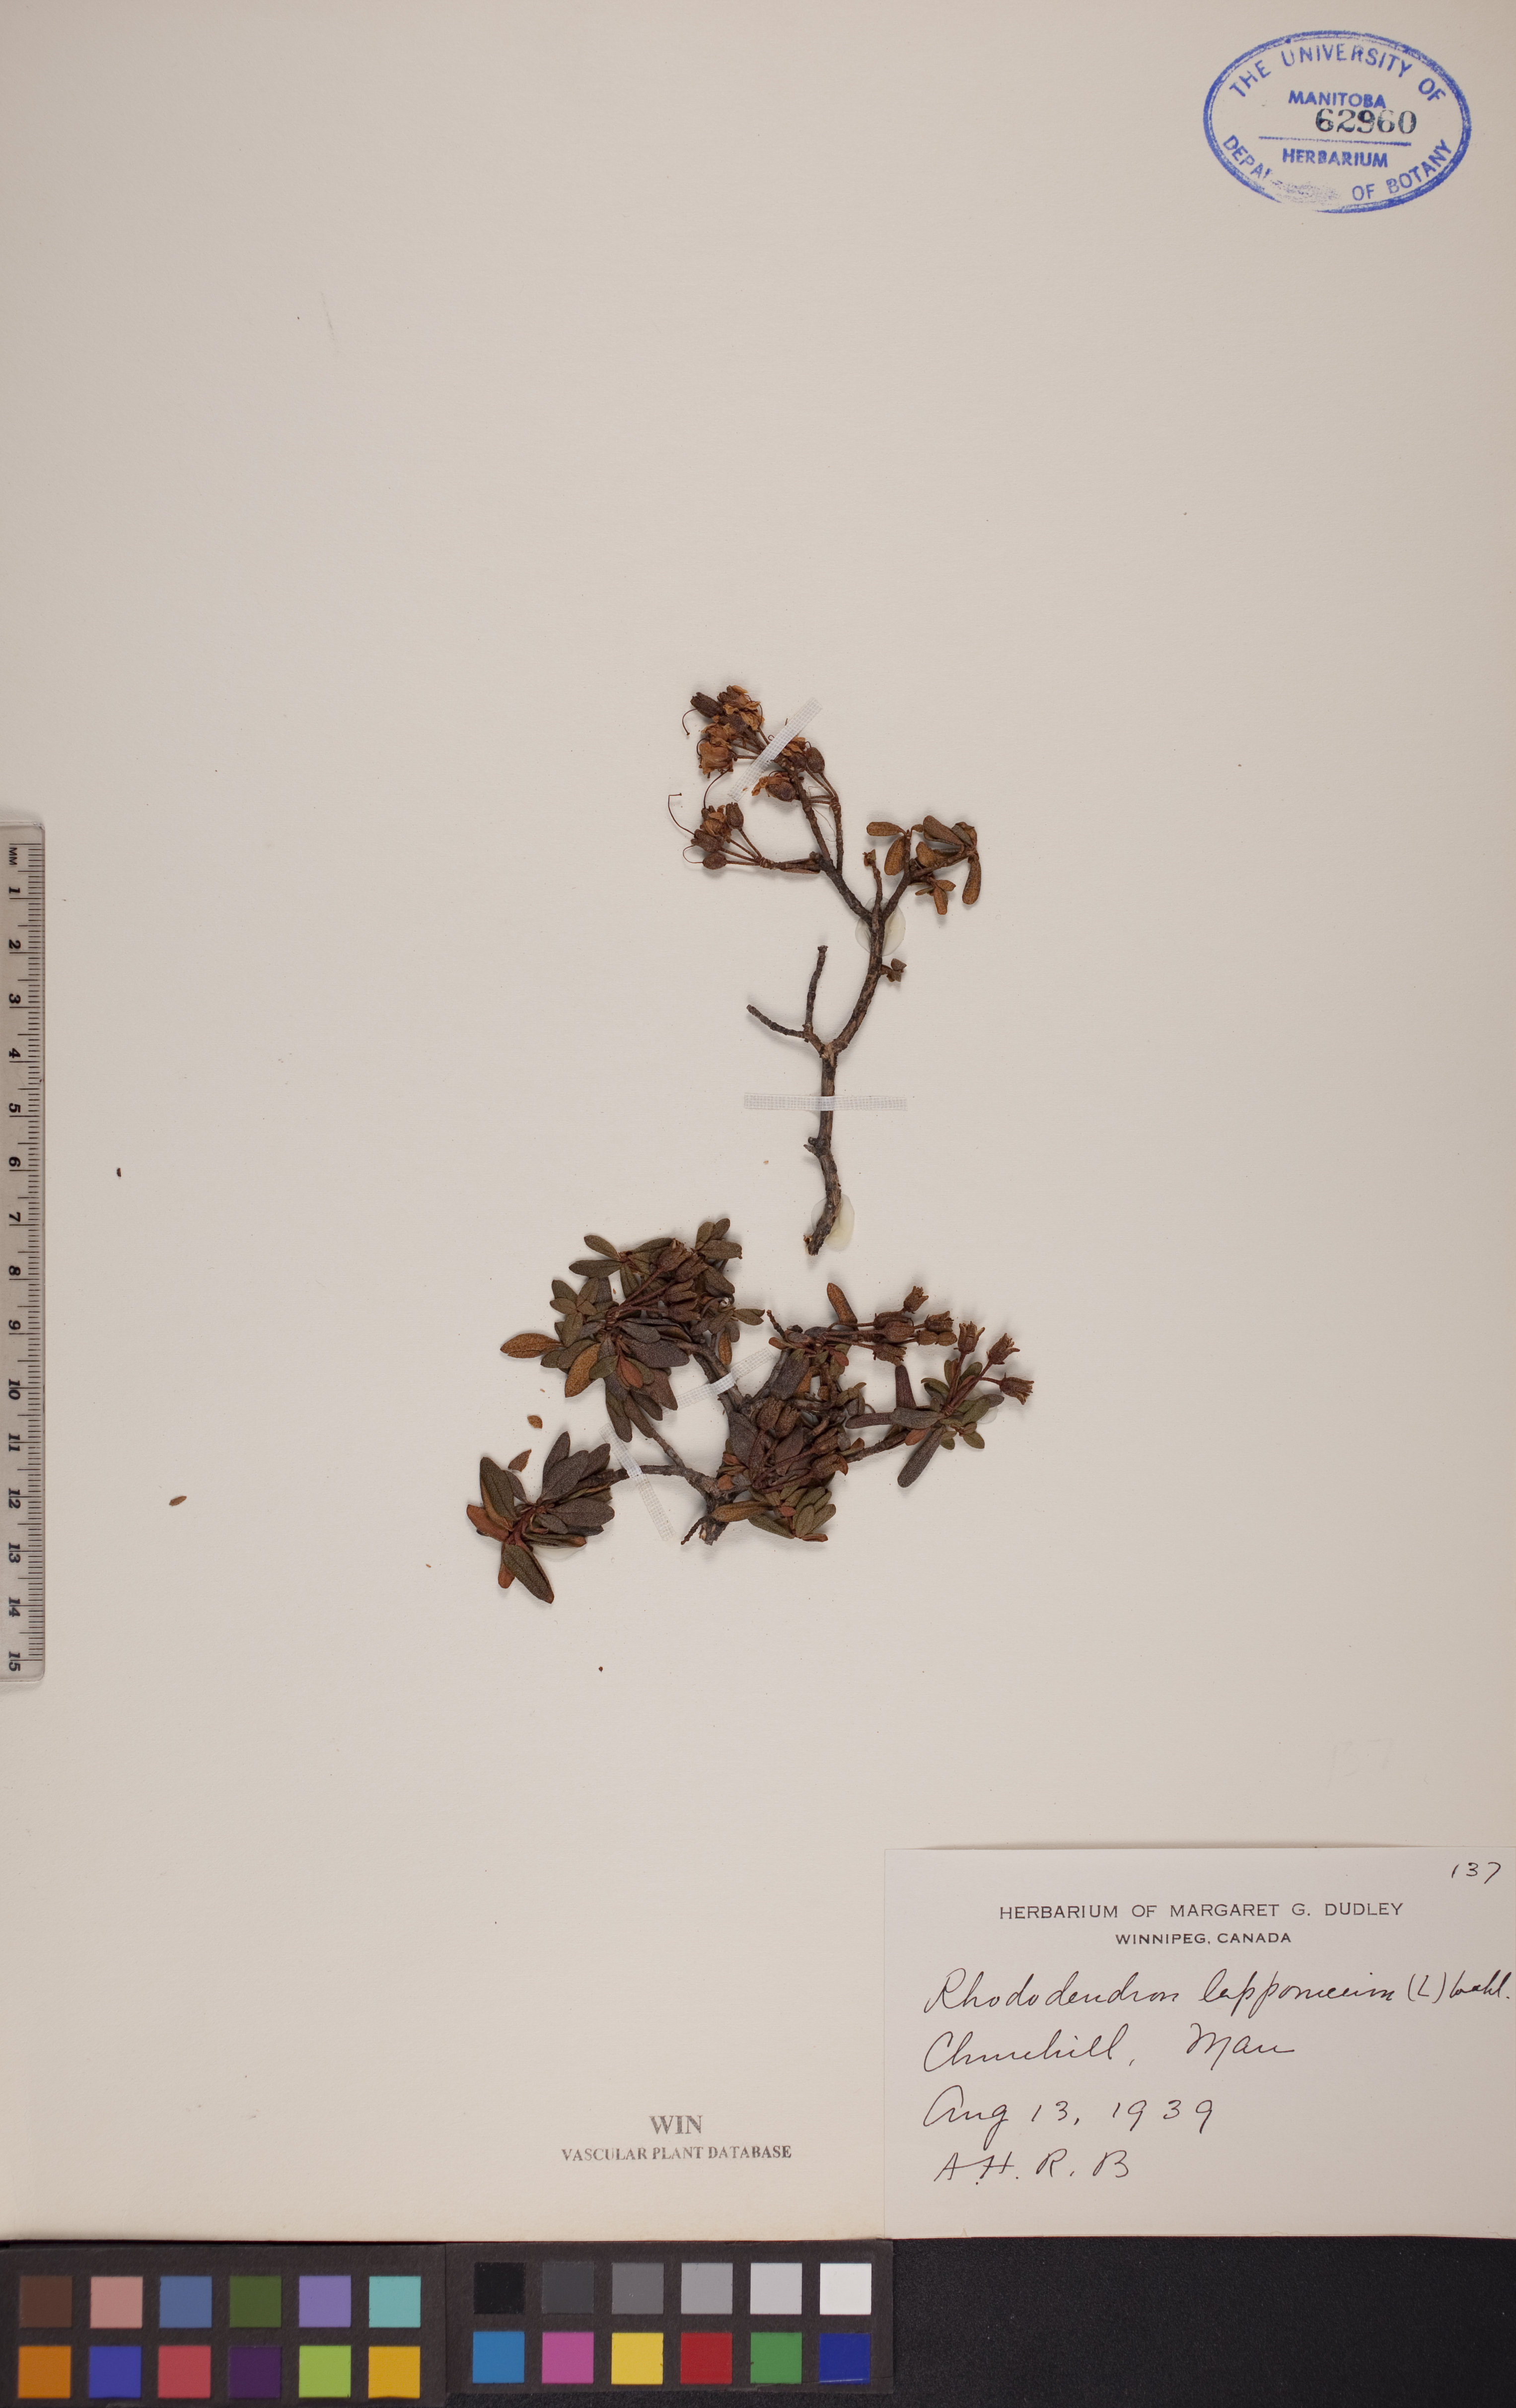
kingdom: Plantae
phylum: Tracheophyta
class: Magnoliopsida
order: Ericales
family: Ericaceae
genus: Rhododendron
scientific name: Rhododendron lapponicum
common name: Lapland rhododendron
